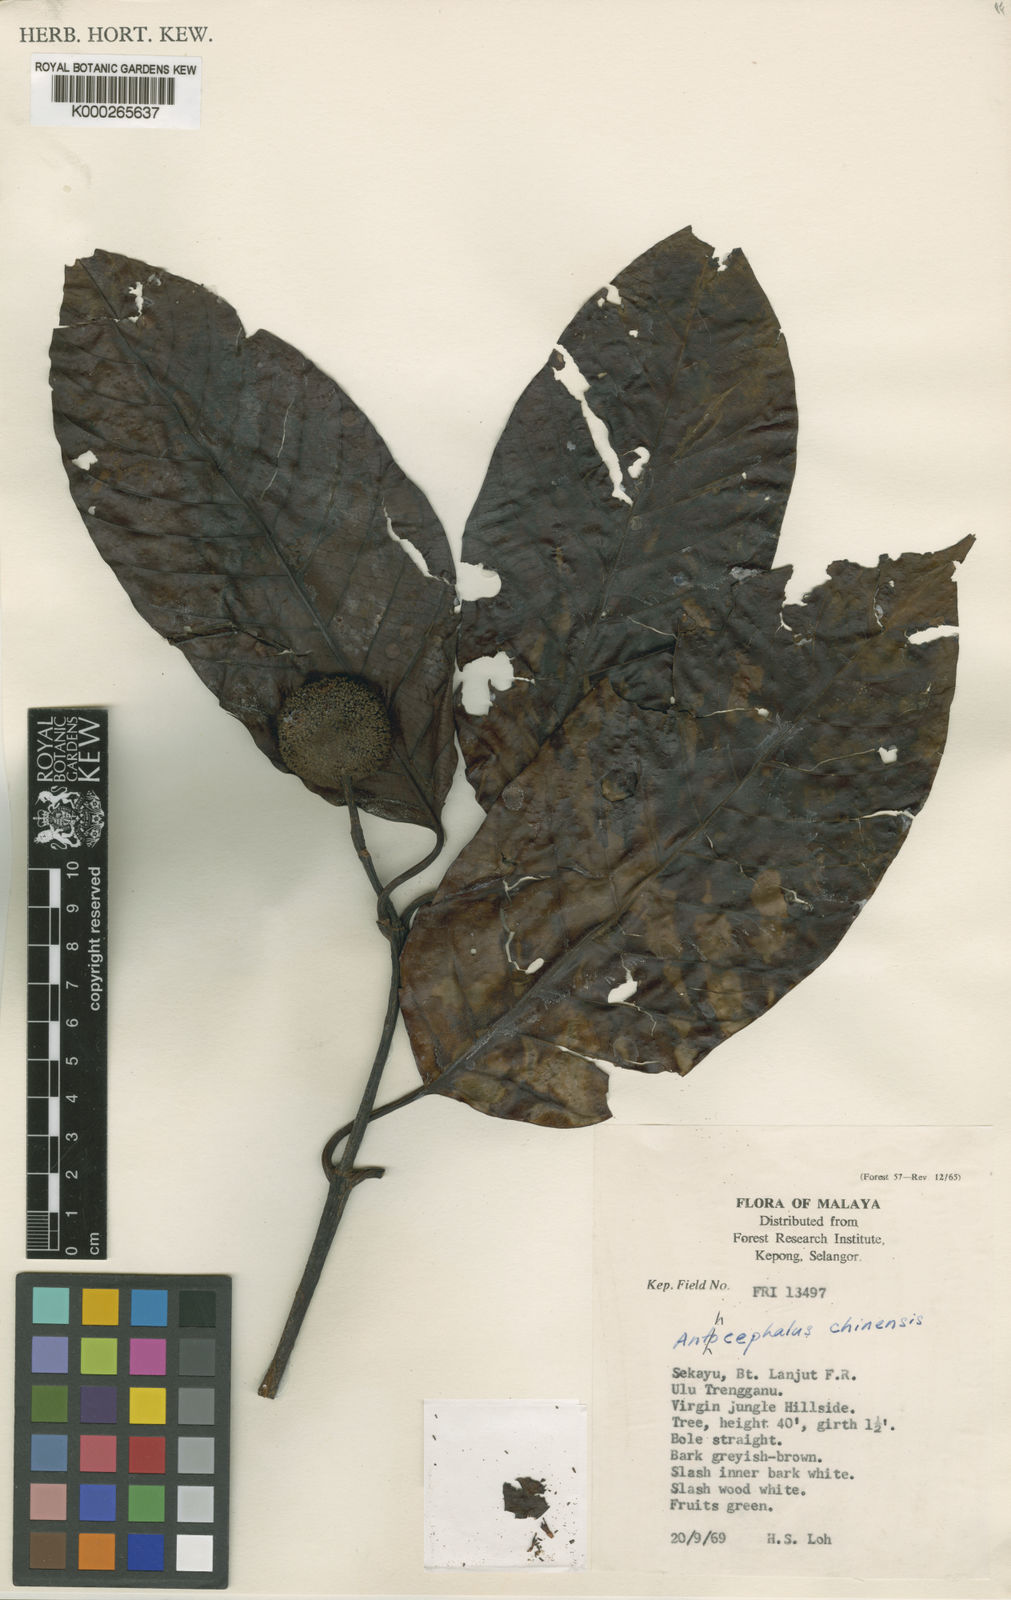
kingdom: Plantae
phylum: Tracheophyta
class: Magnoliopsida
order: Gentianales
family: Rubiaceae
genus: Neolamarckia
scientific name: Neolamarckia cadamba
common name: Leichhardt-pine
